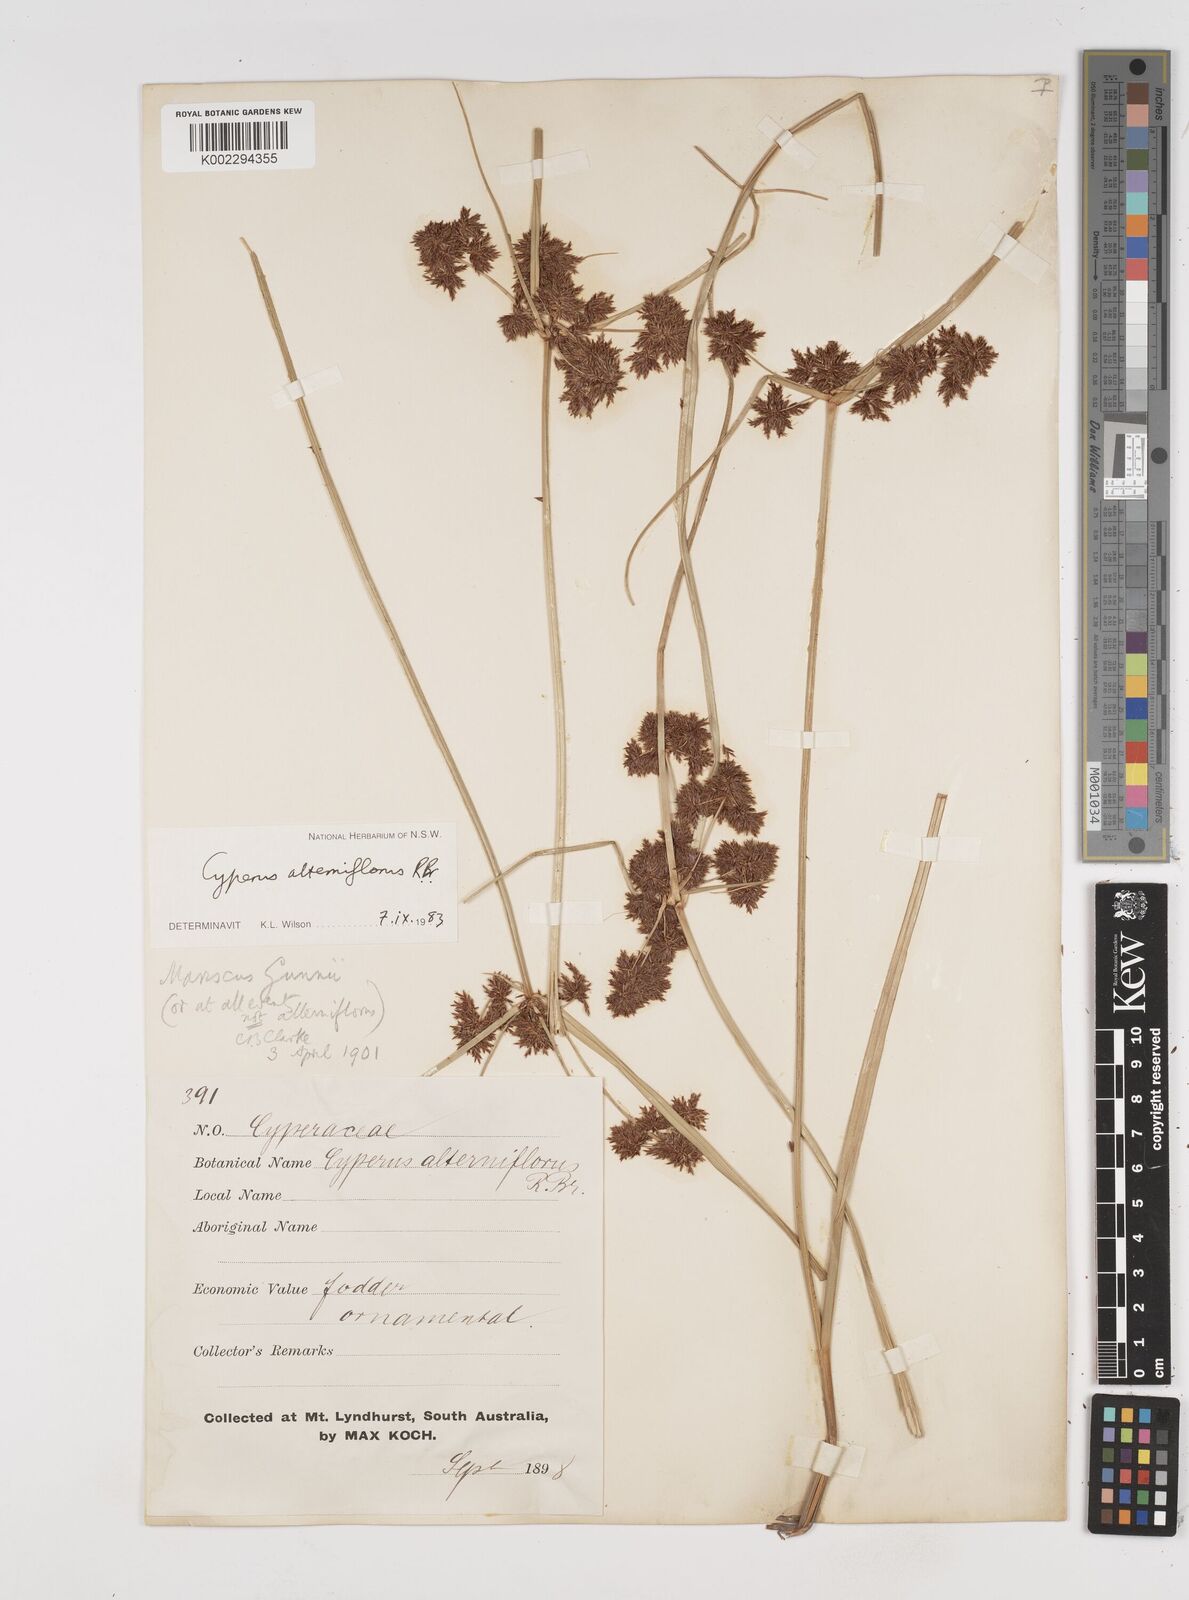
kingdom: Plantae
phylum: Tracheophyta
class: Liliopsida
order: Poales
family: Cyperaceae
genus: Cyperus
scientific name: Cyperus alterniflorus
